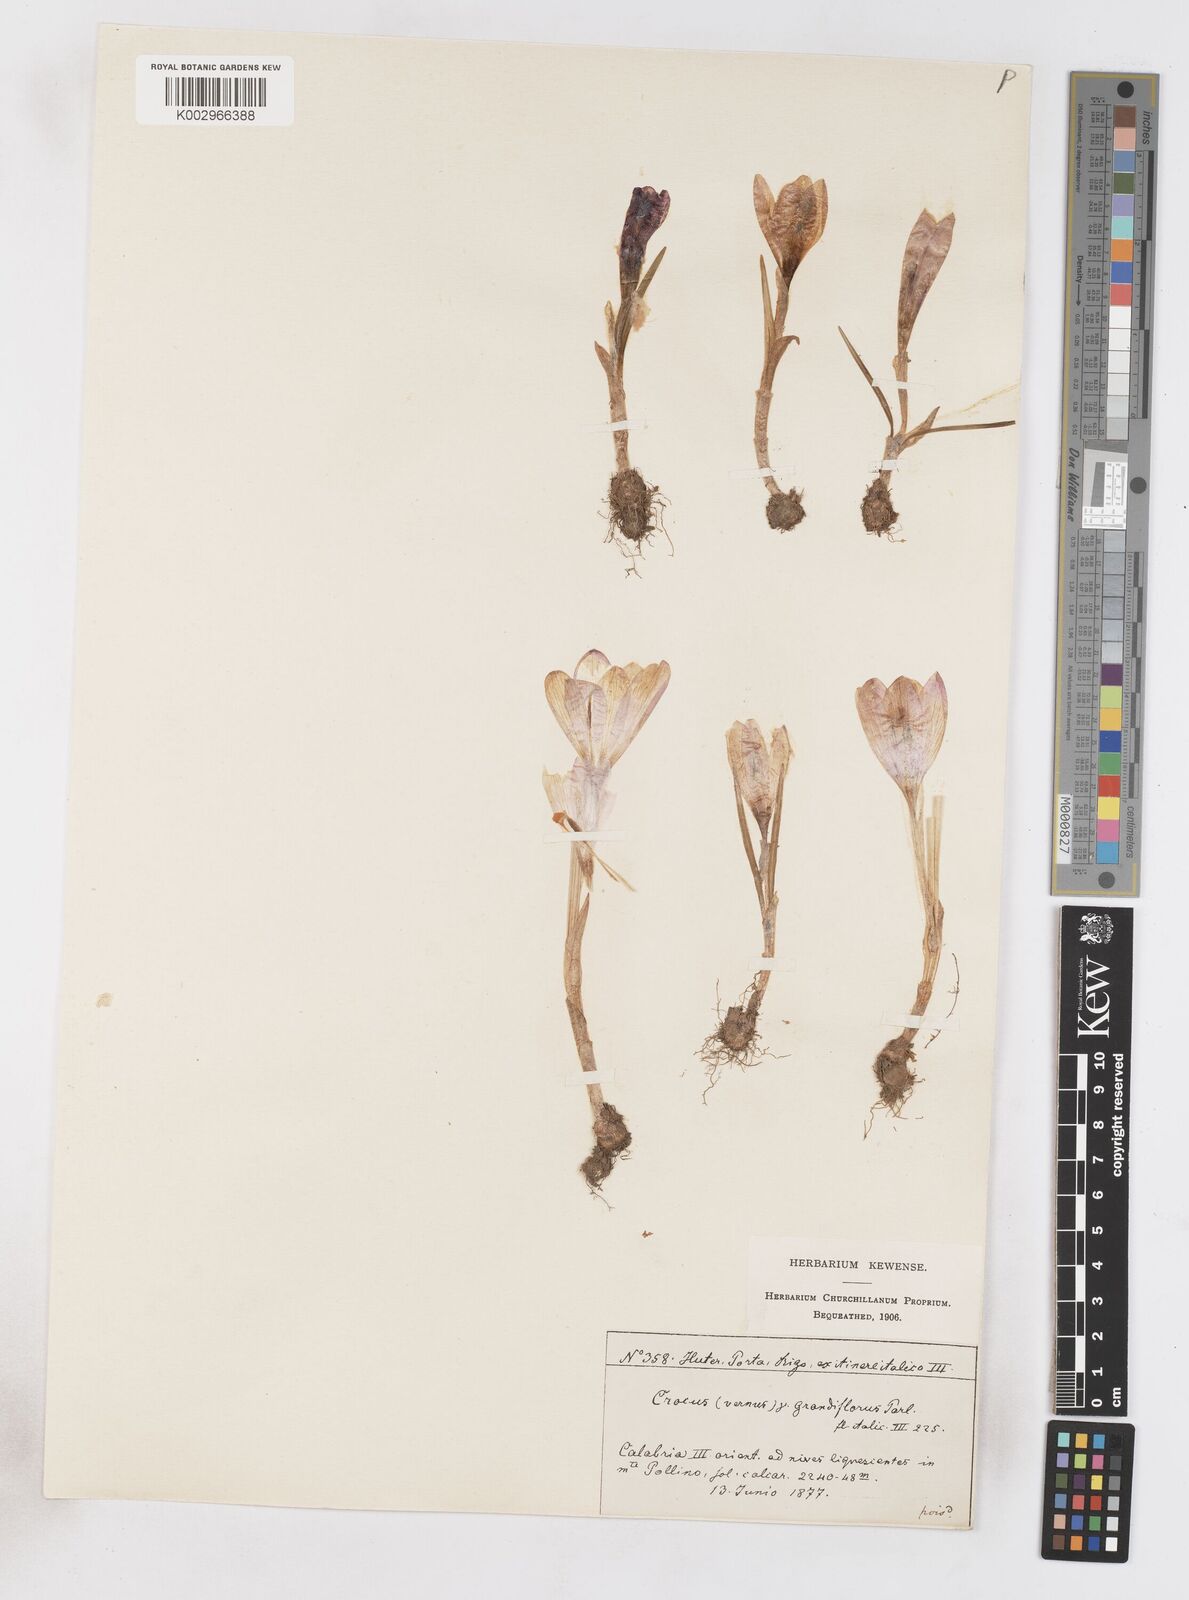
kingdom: Plantae
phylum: Tracheophyta
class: Liliopsida
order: Asparagales
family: Iridaceae
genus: Crocus
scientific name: Crocus vernus
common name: Spring crocus
